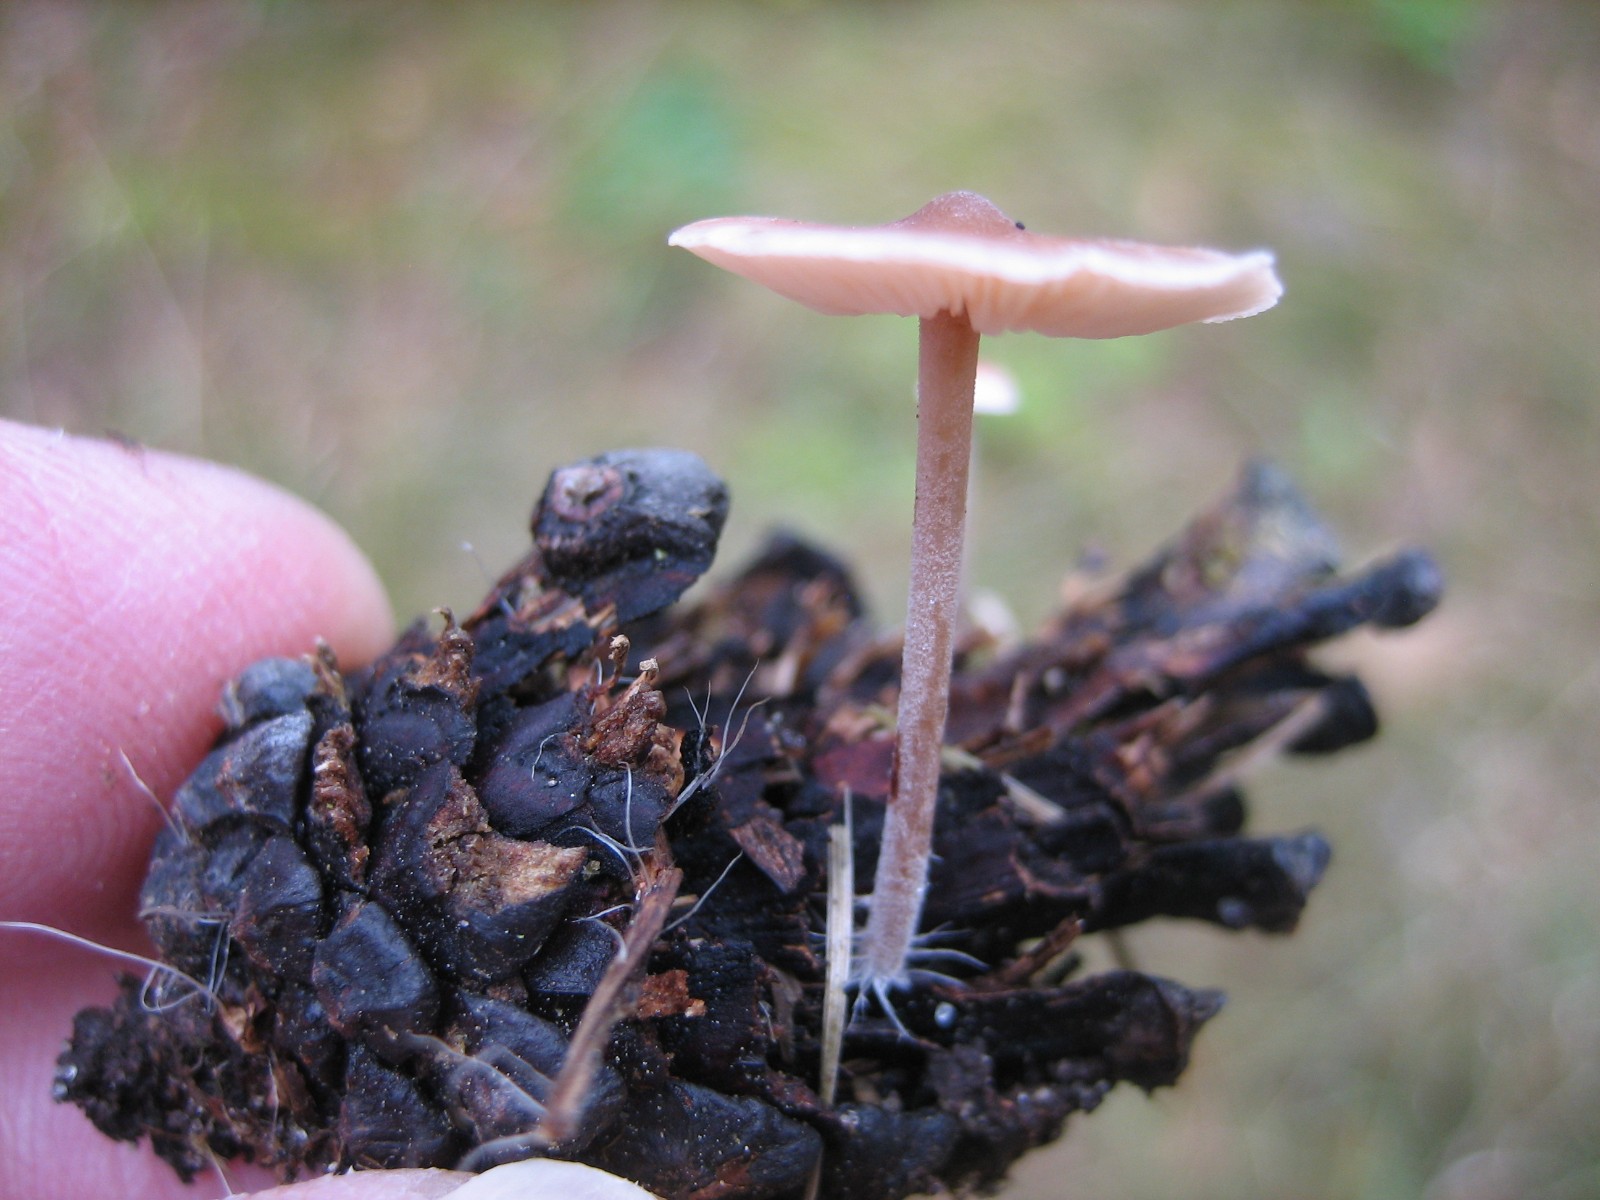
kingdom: Fungi
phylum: Basidiomycota
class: Agaricomycetes
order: Agaricales
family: Physalacriaceae
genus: Strobilurus
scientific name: Strobilurus stephanocystis
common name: fyrre-koglehat
